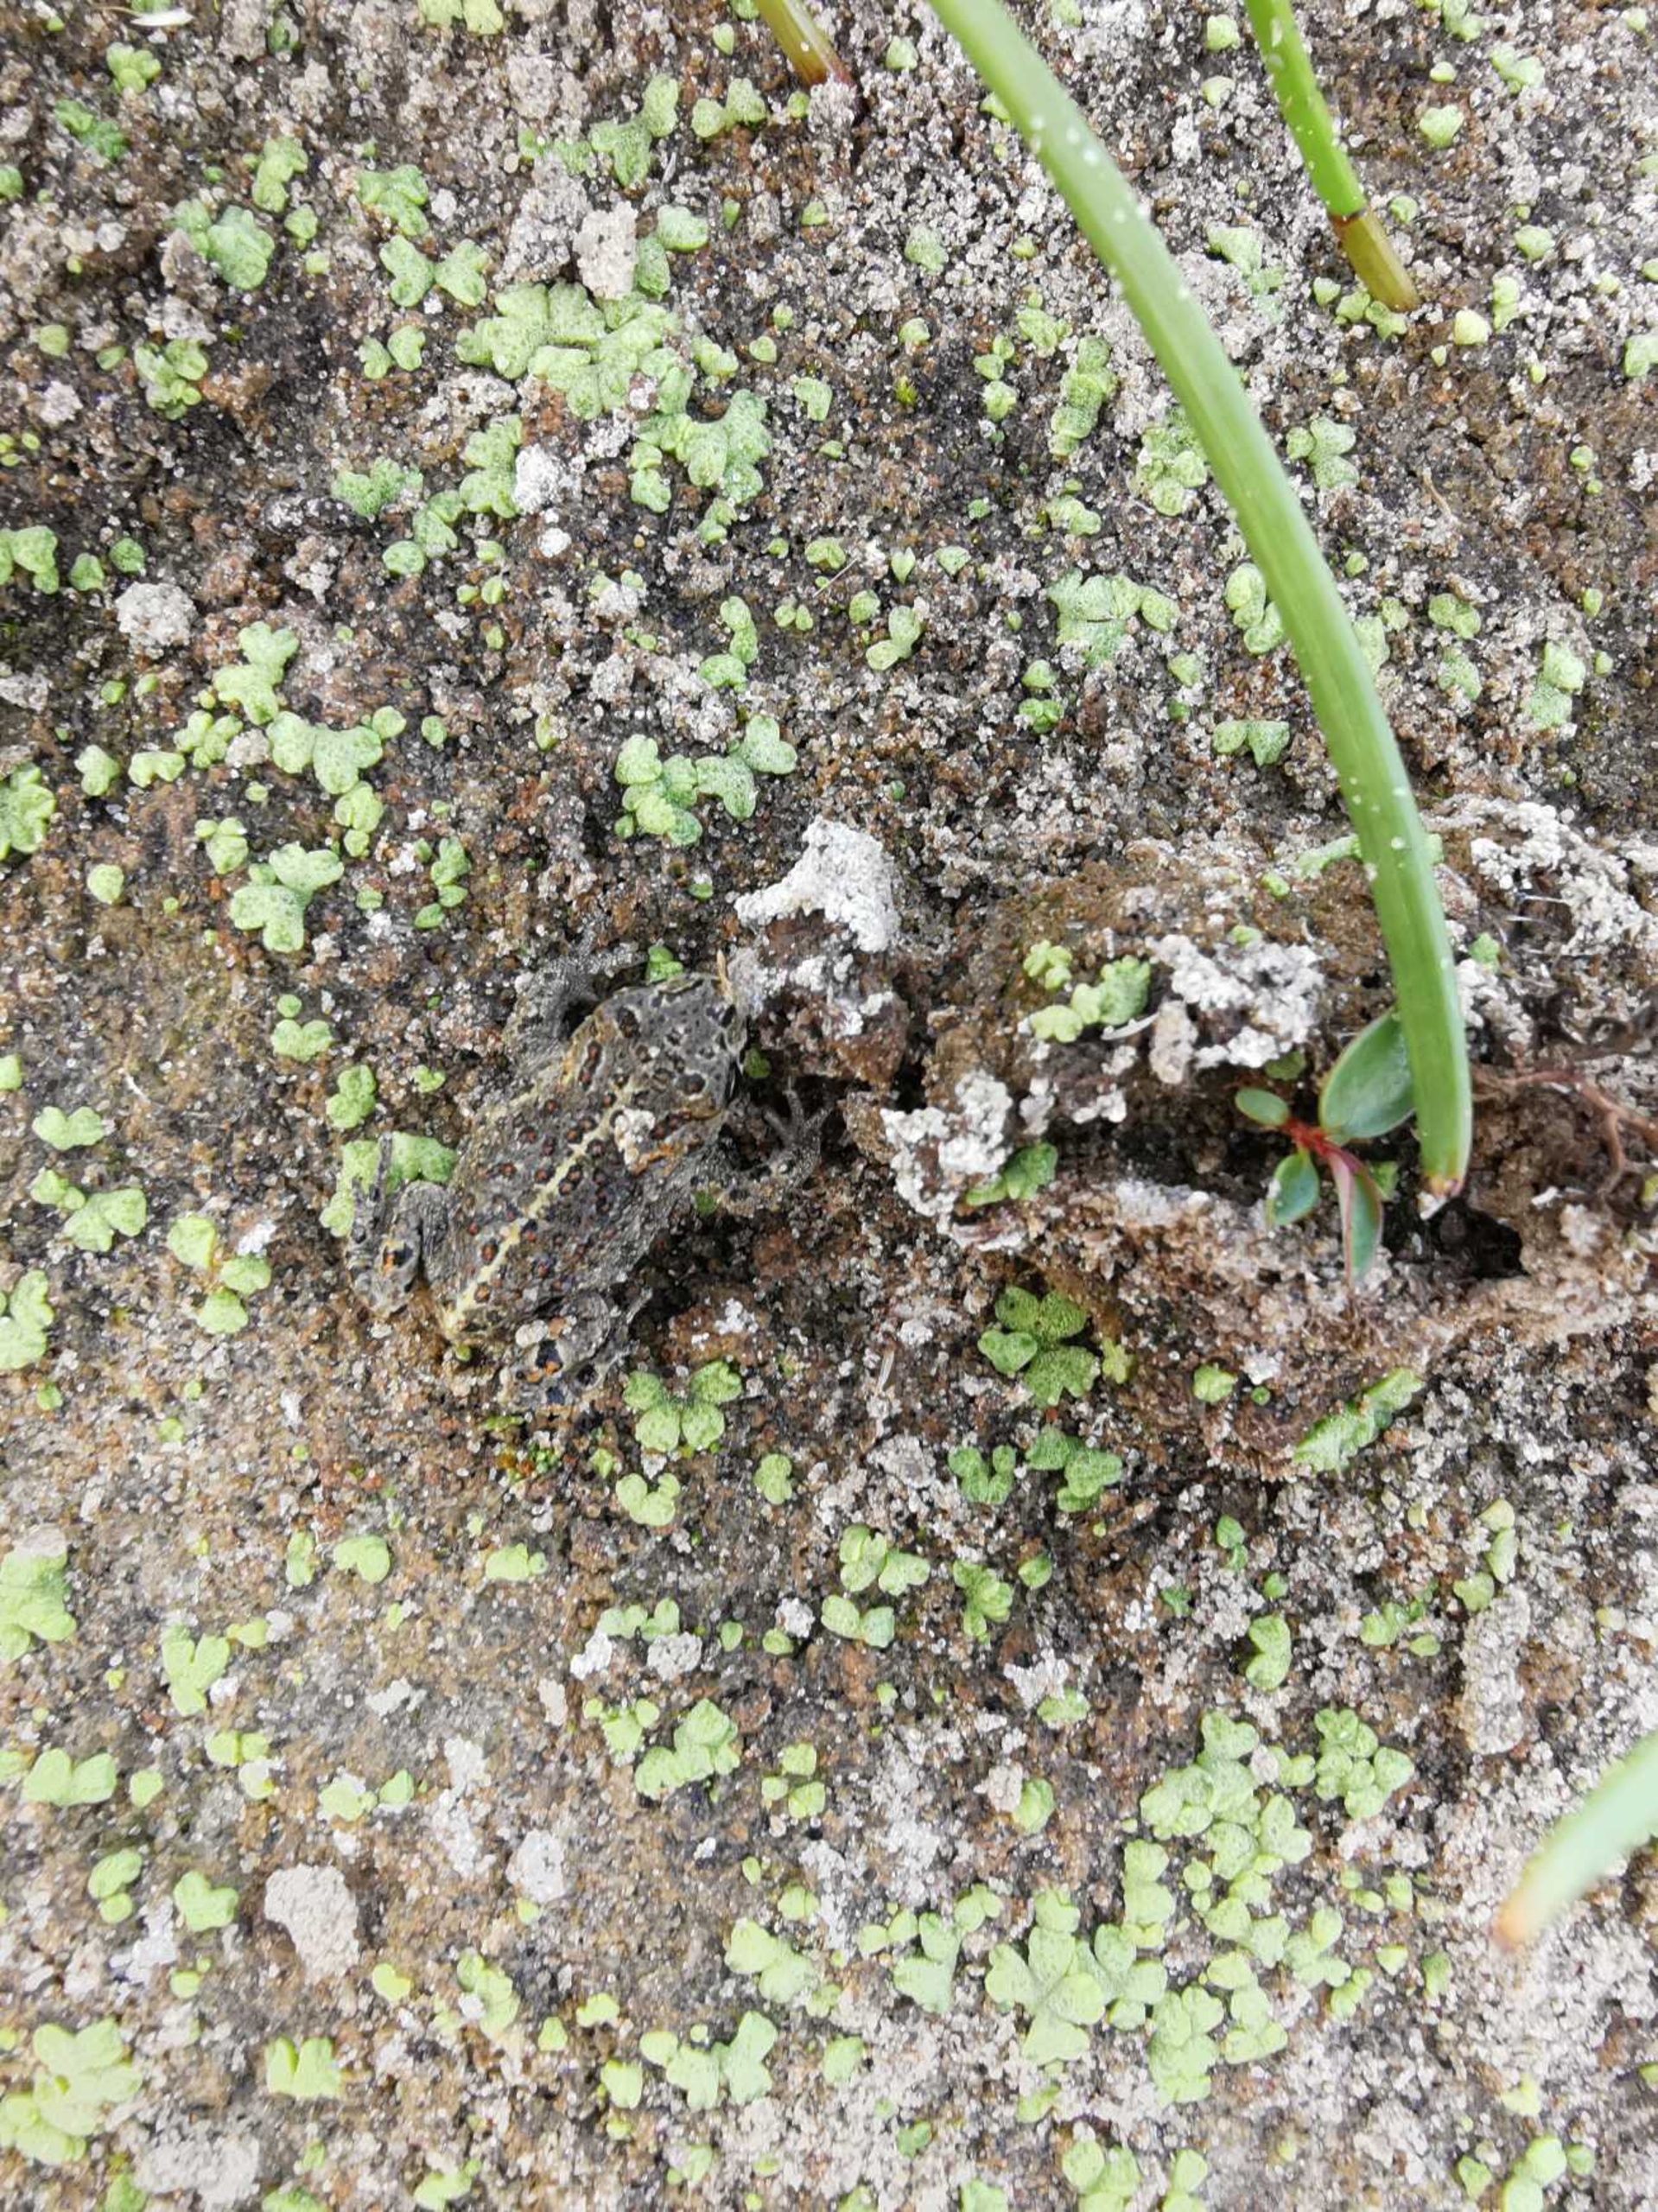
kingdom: Animalia
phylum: Chordata
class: Amphibia
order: Anura
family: Bufonidae
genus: Epidalea
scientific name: Epidalea calamita
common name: Strandtudse
